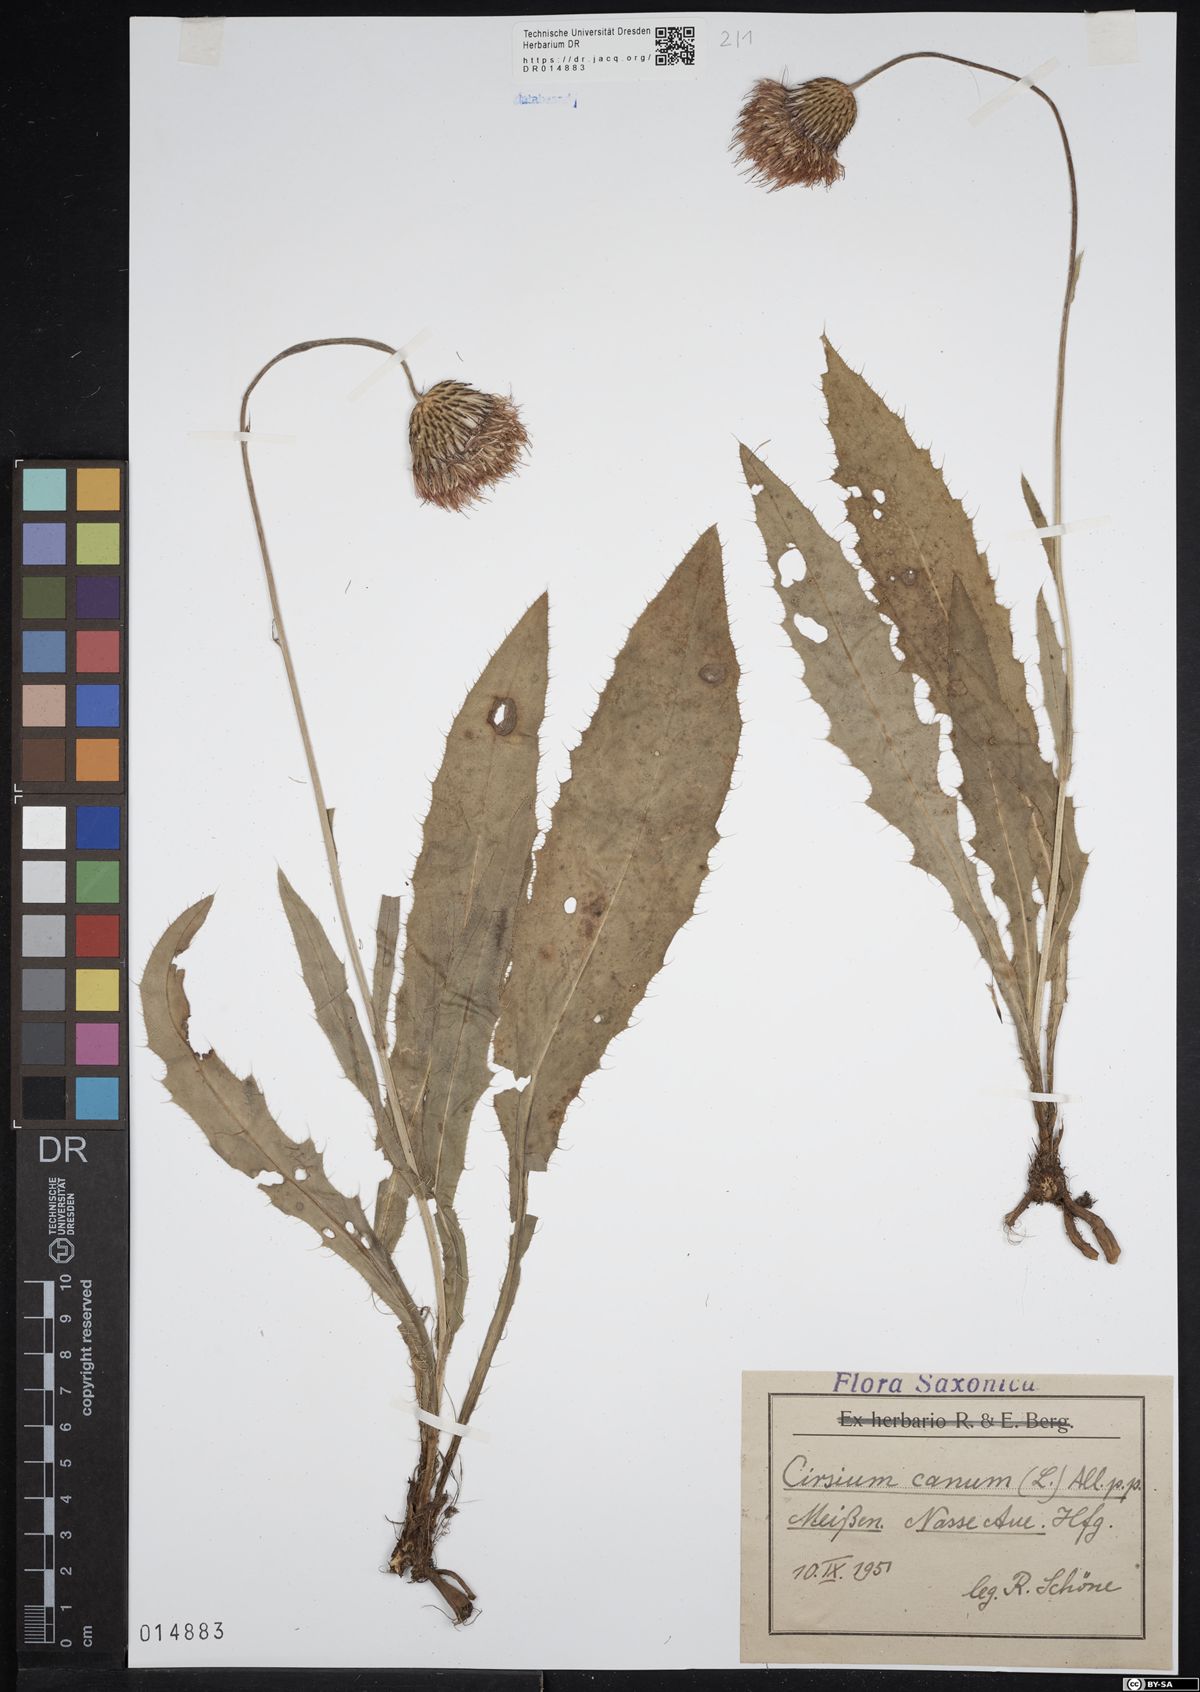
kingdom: Plantae
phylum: Tracheophyta
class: Magnoliopsida
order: Asterales
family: Asteraceae
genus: Cirsium
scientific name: Cirsium canum
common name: Queen anne's thistle
